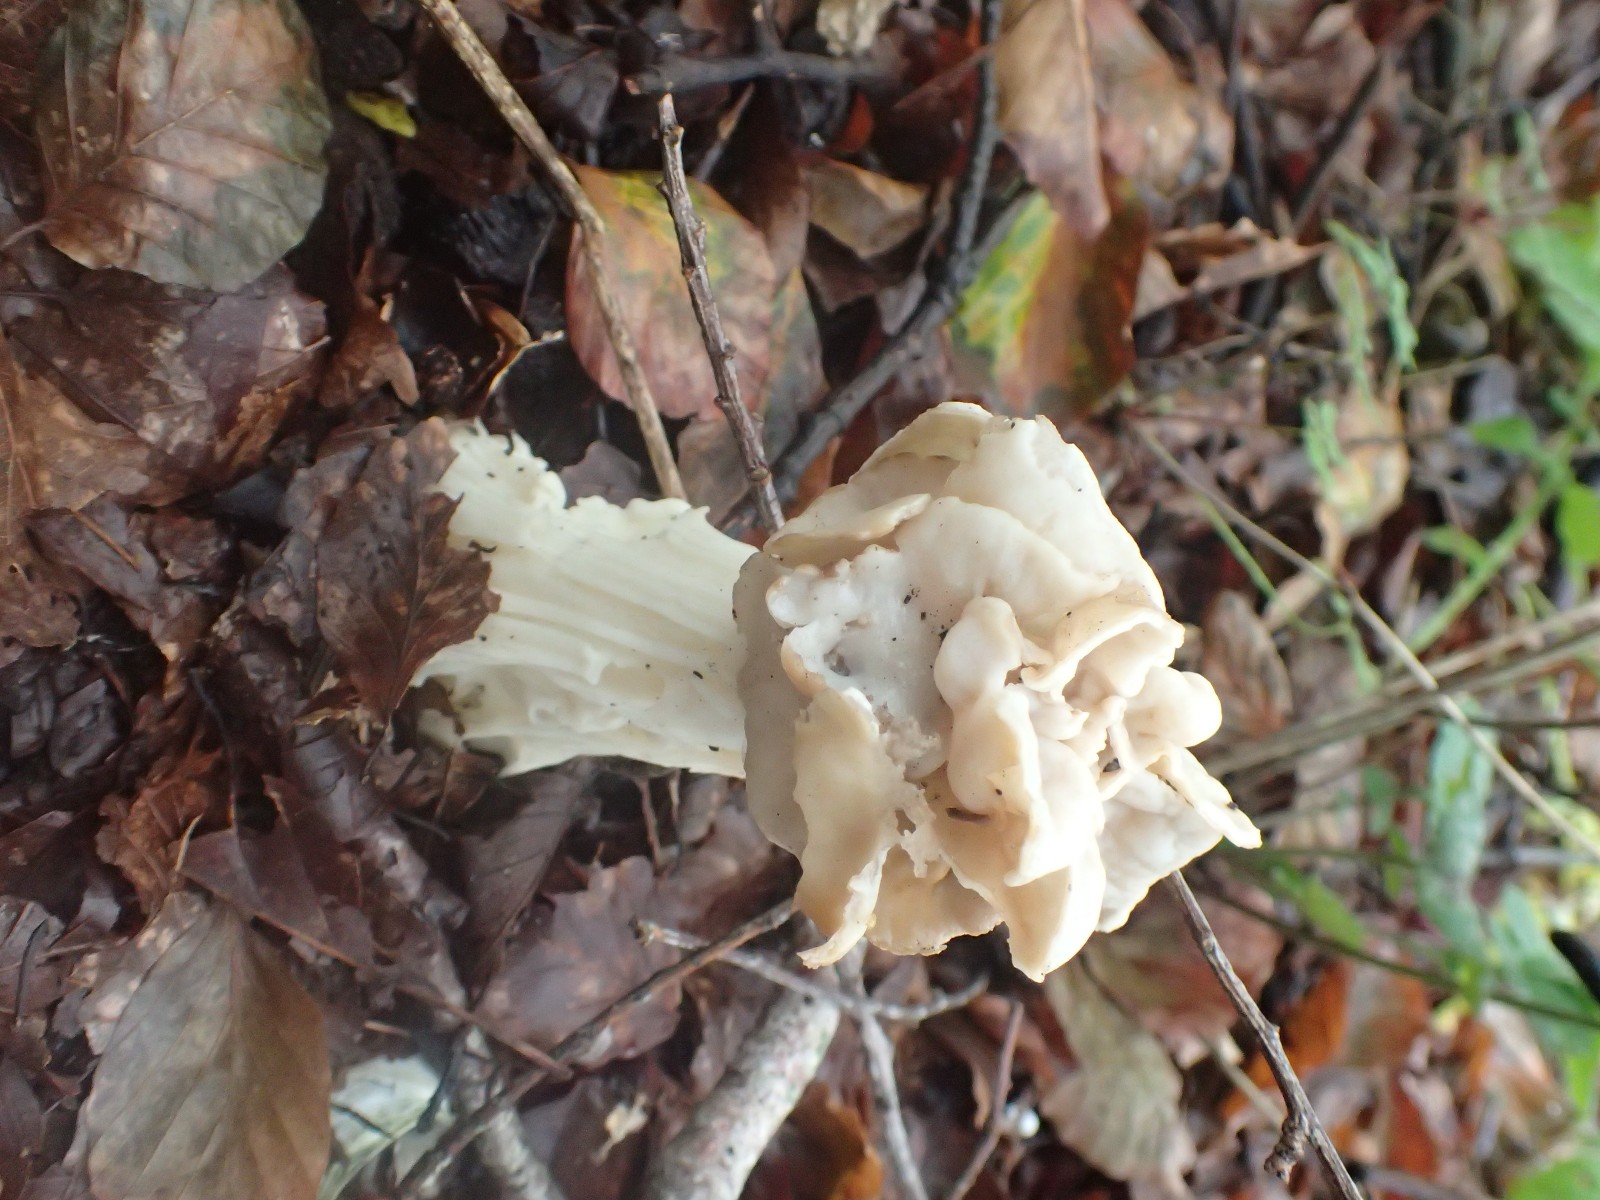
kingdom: Fungi
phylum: Ascomycota
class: Pezizomycetes
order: Pezizales
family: Helvellaceae
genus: Helvella
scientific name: Helvella crispa
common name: kruset foldhat
